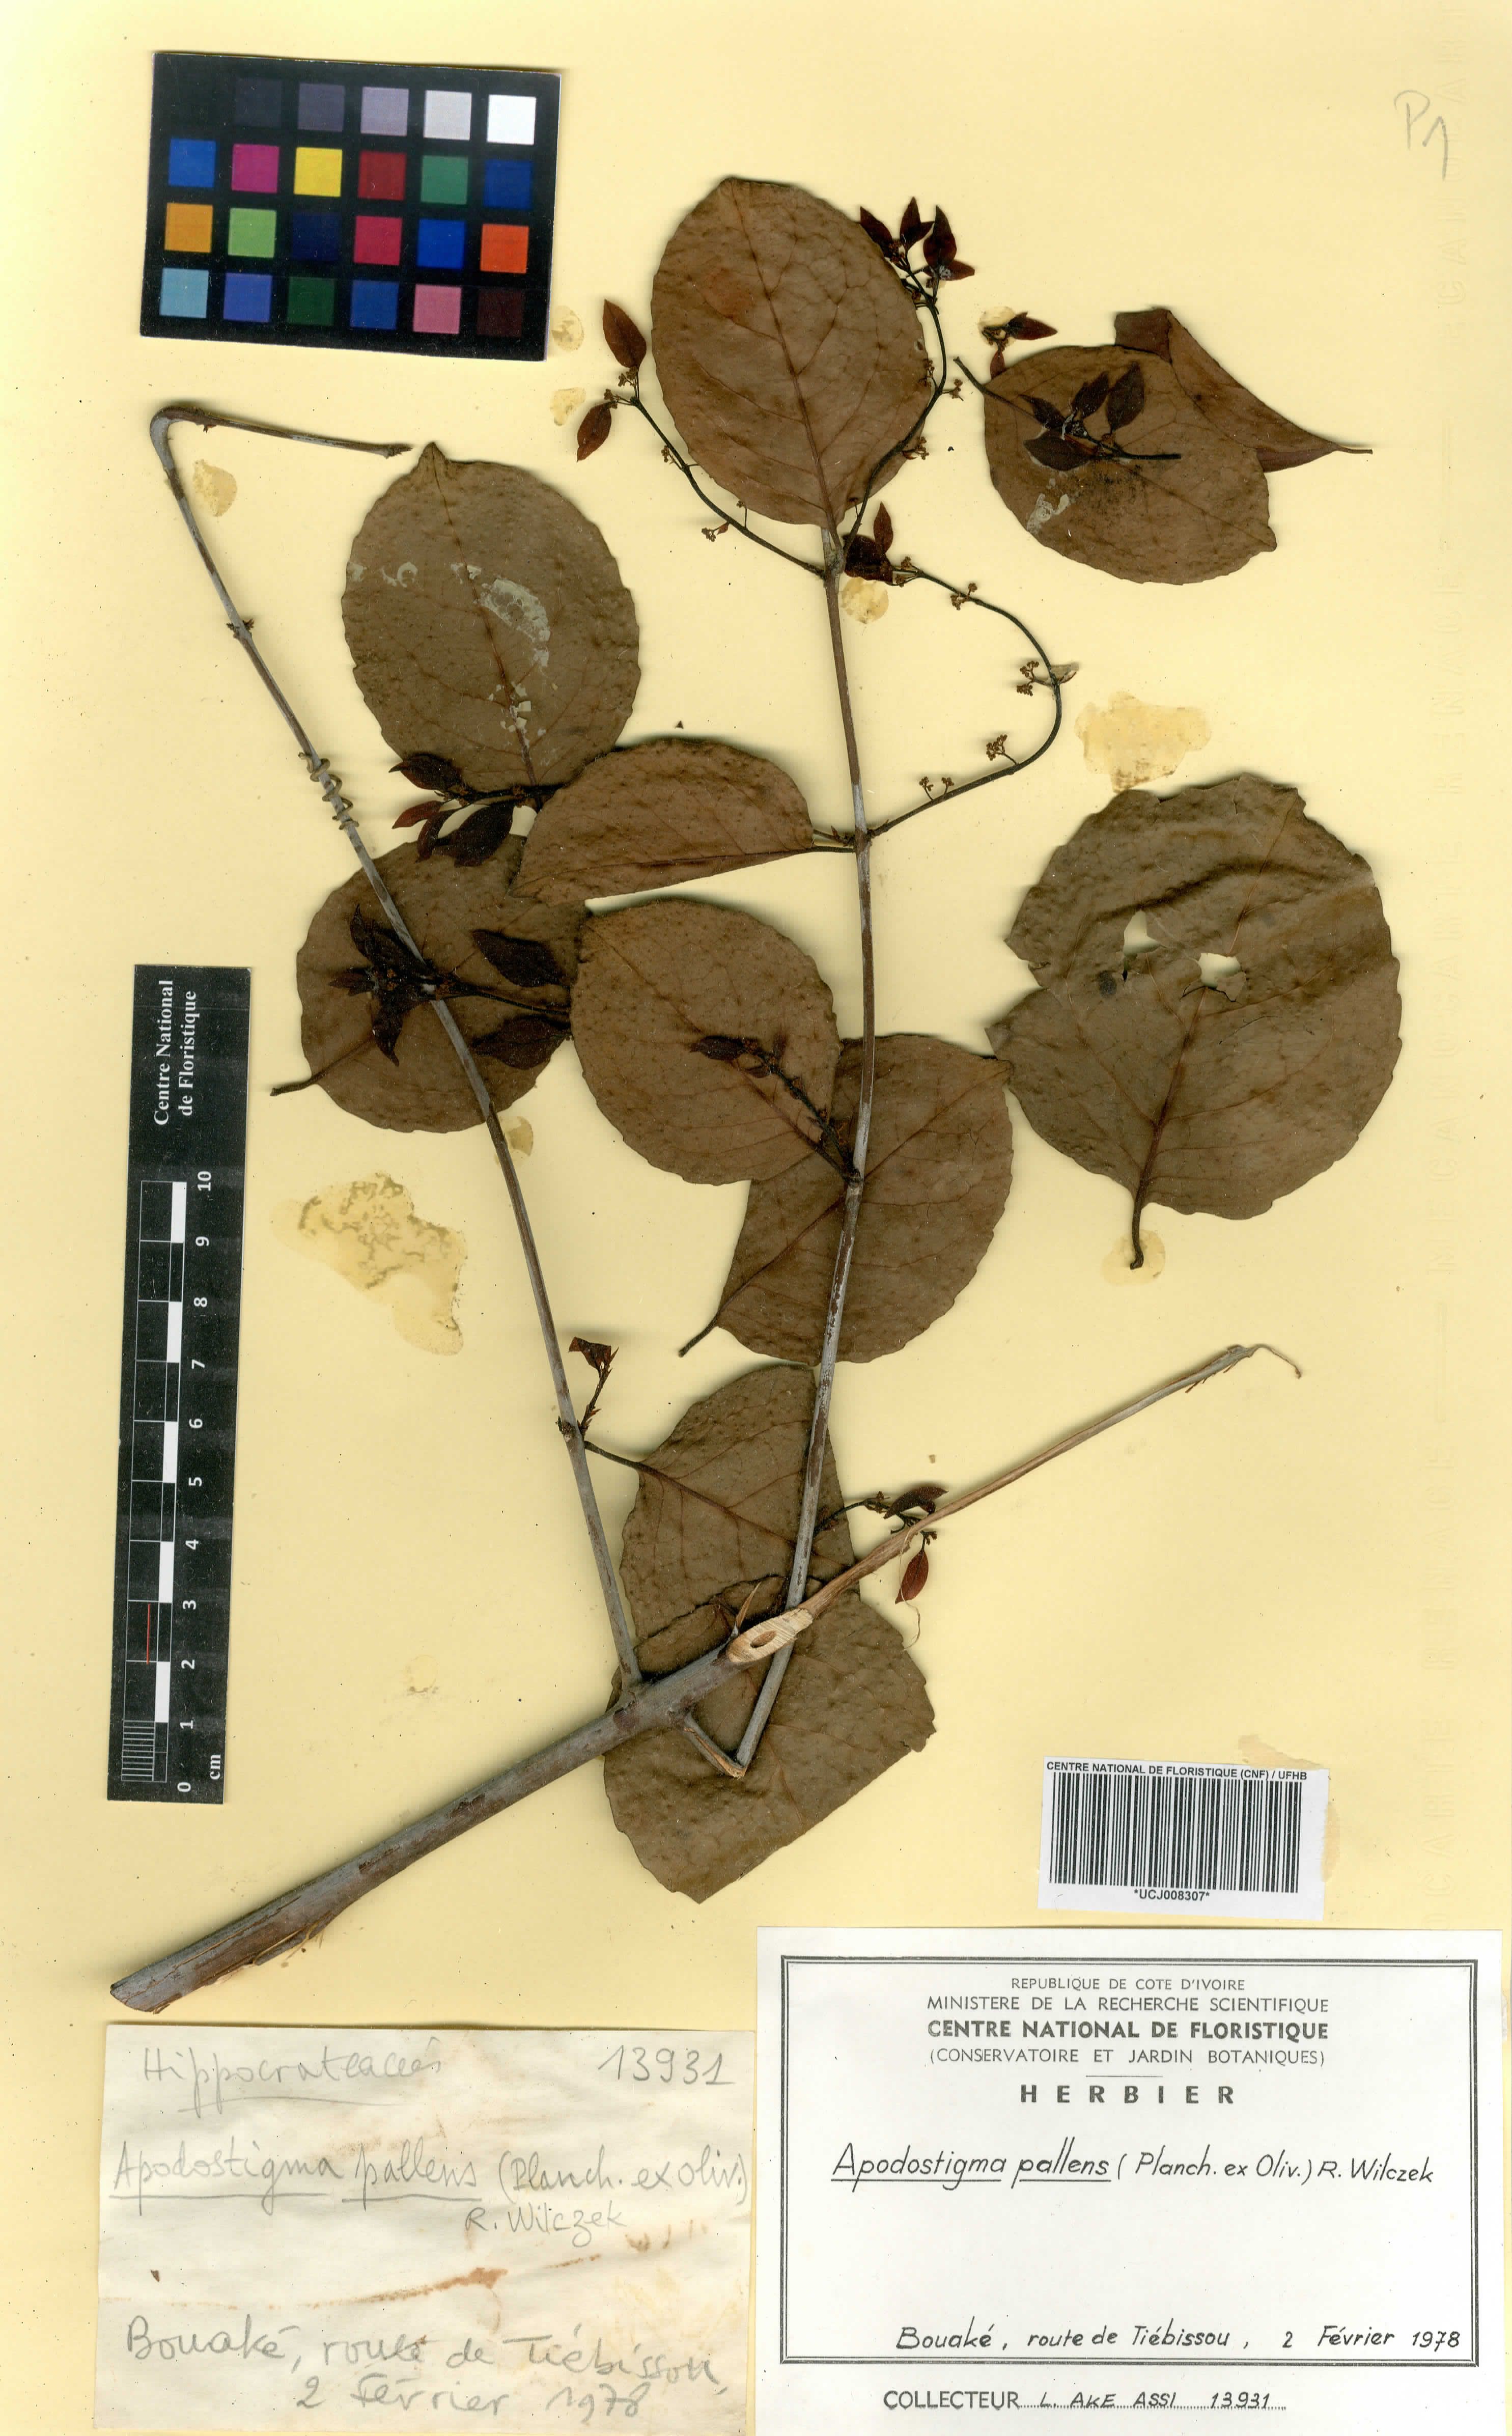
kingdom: Plantae
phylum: Tracheophyta
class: Magnoliopsida
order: Celastrales
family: Celastraceae
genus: Apodostigma
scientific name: Apodostigma pallens
